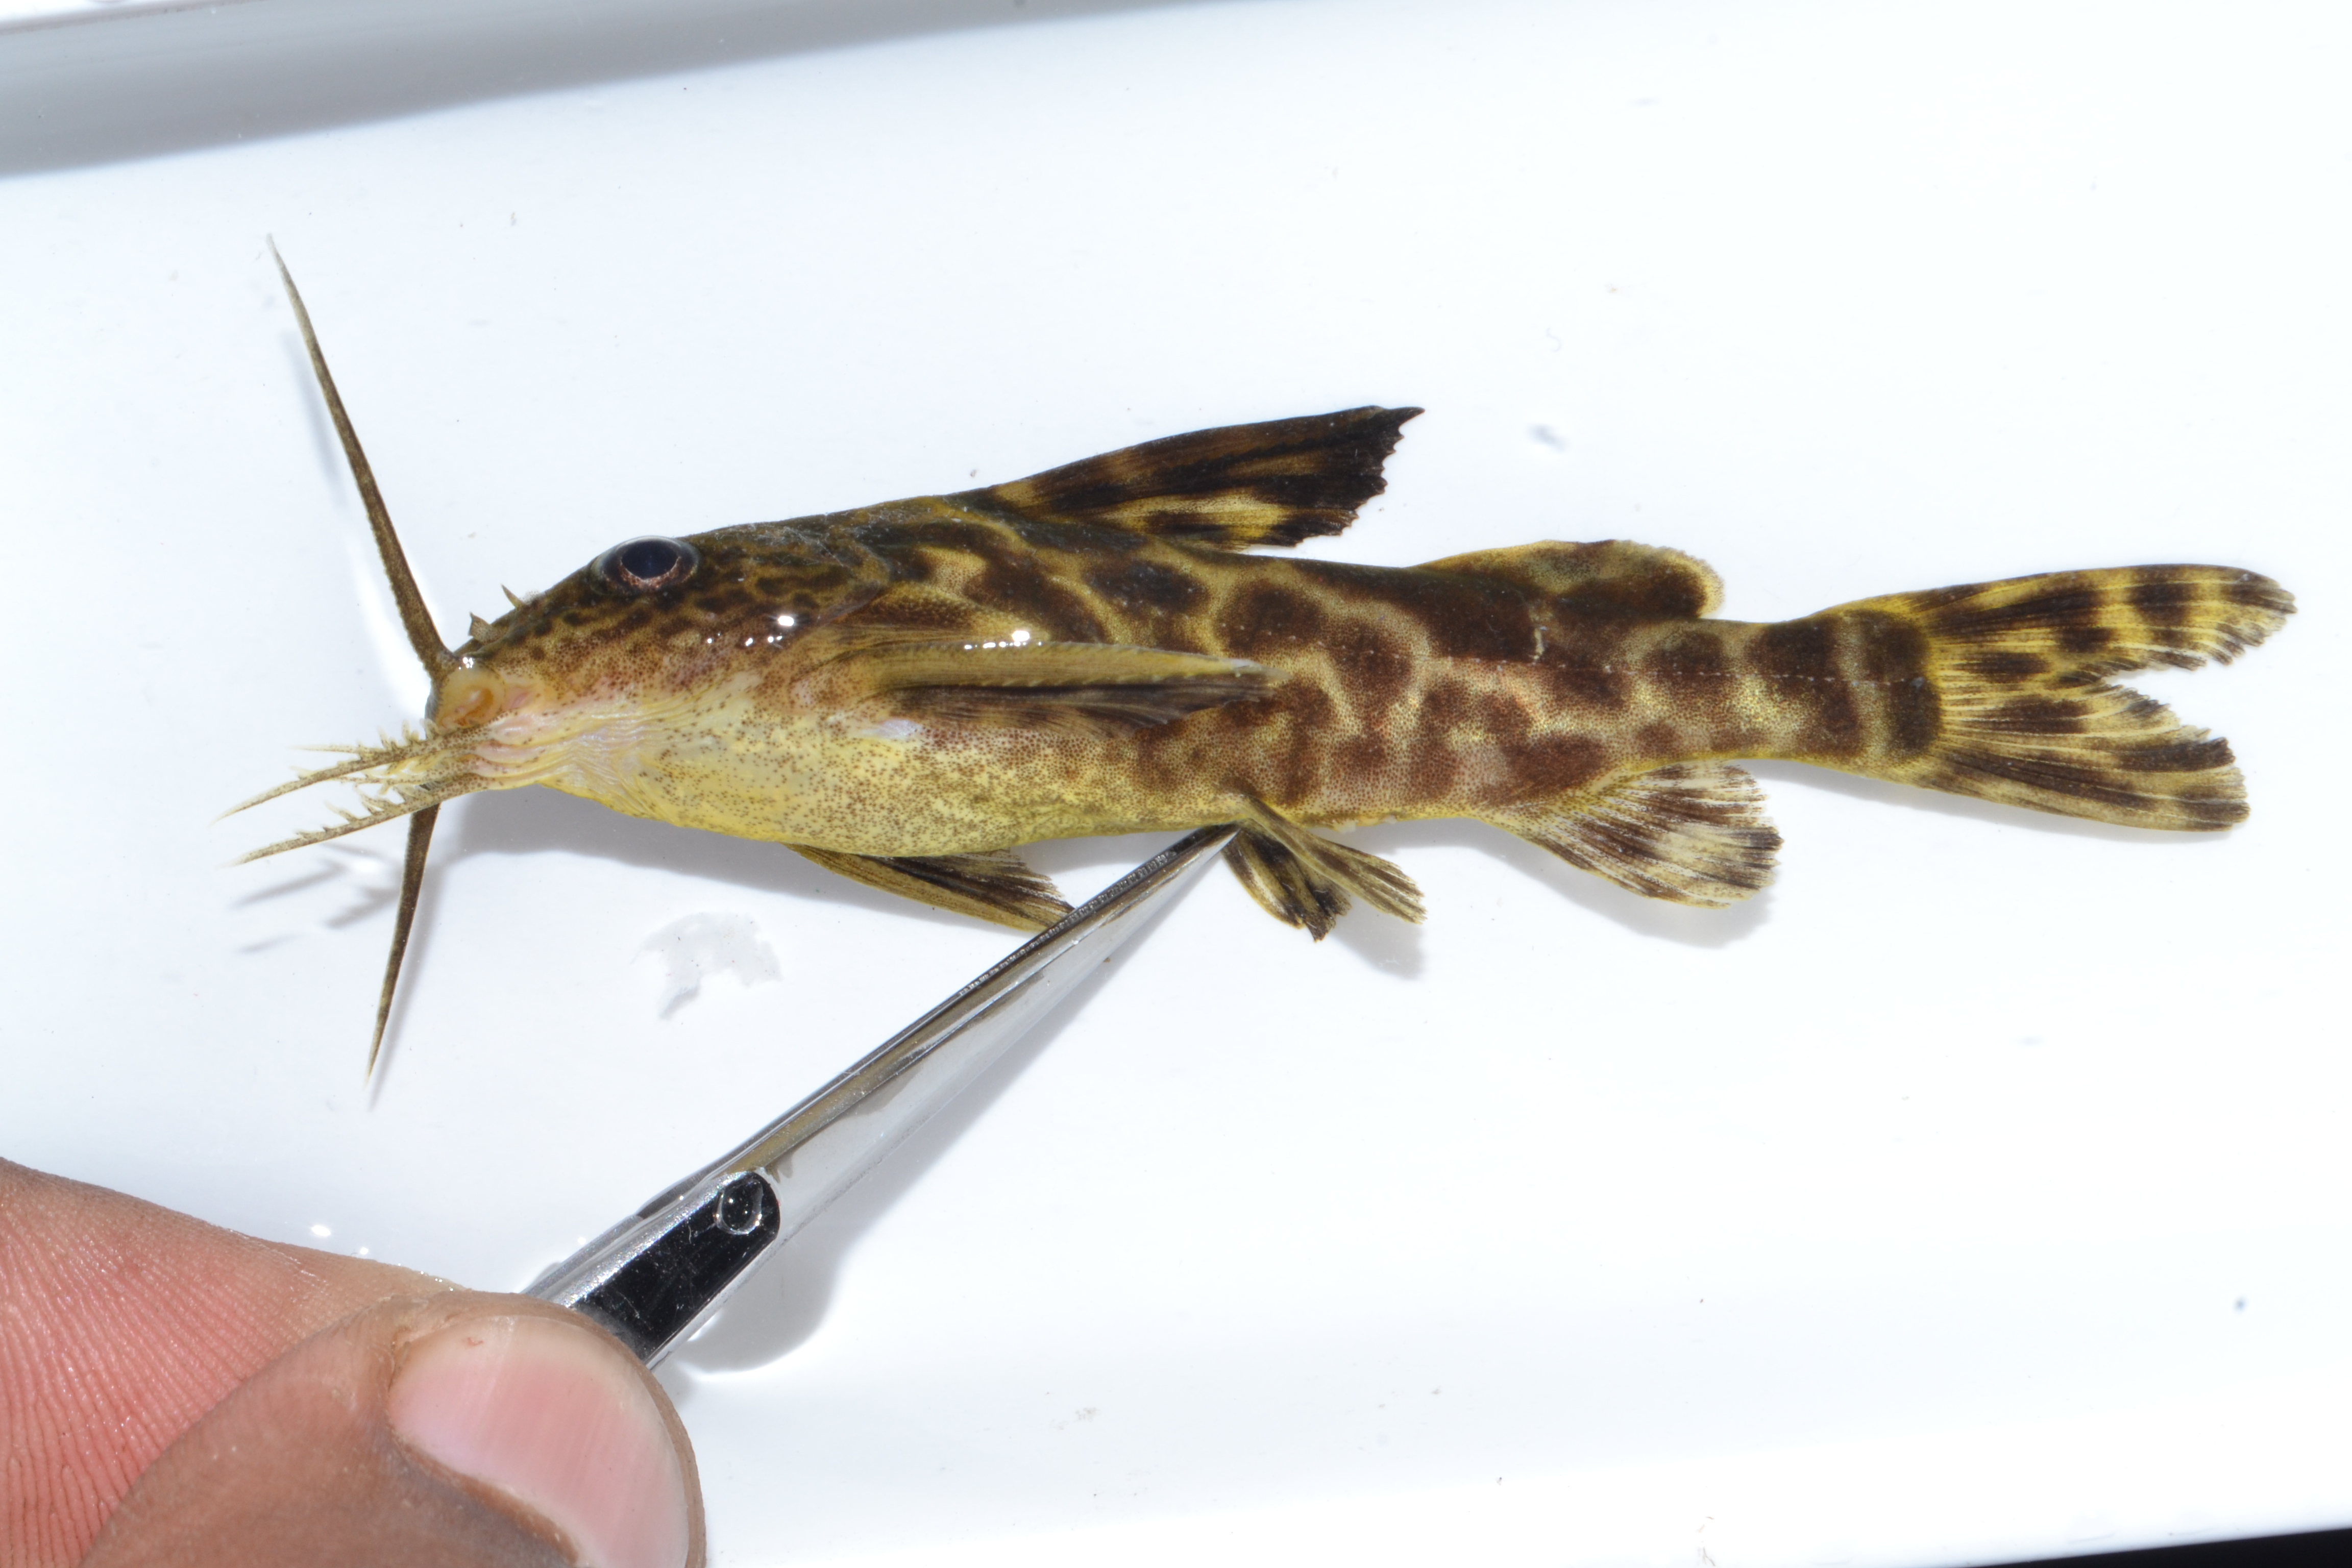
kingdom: Animalia
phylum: Chordata
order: Siluriformes
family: Mochokidae
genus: Synodontis
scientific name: Synodontis macrostigma
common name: Largespot squeaker
